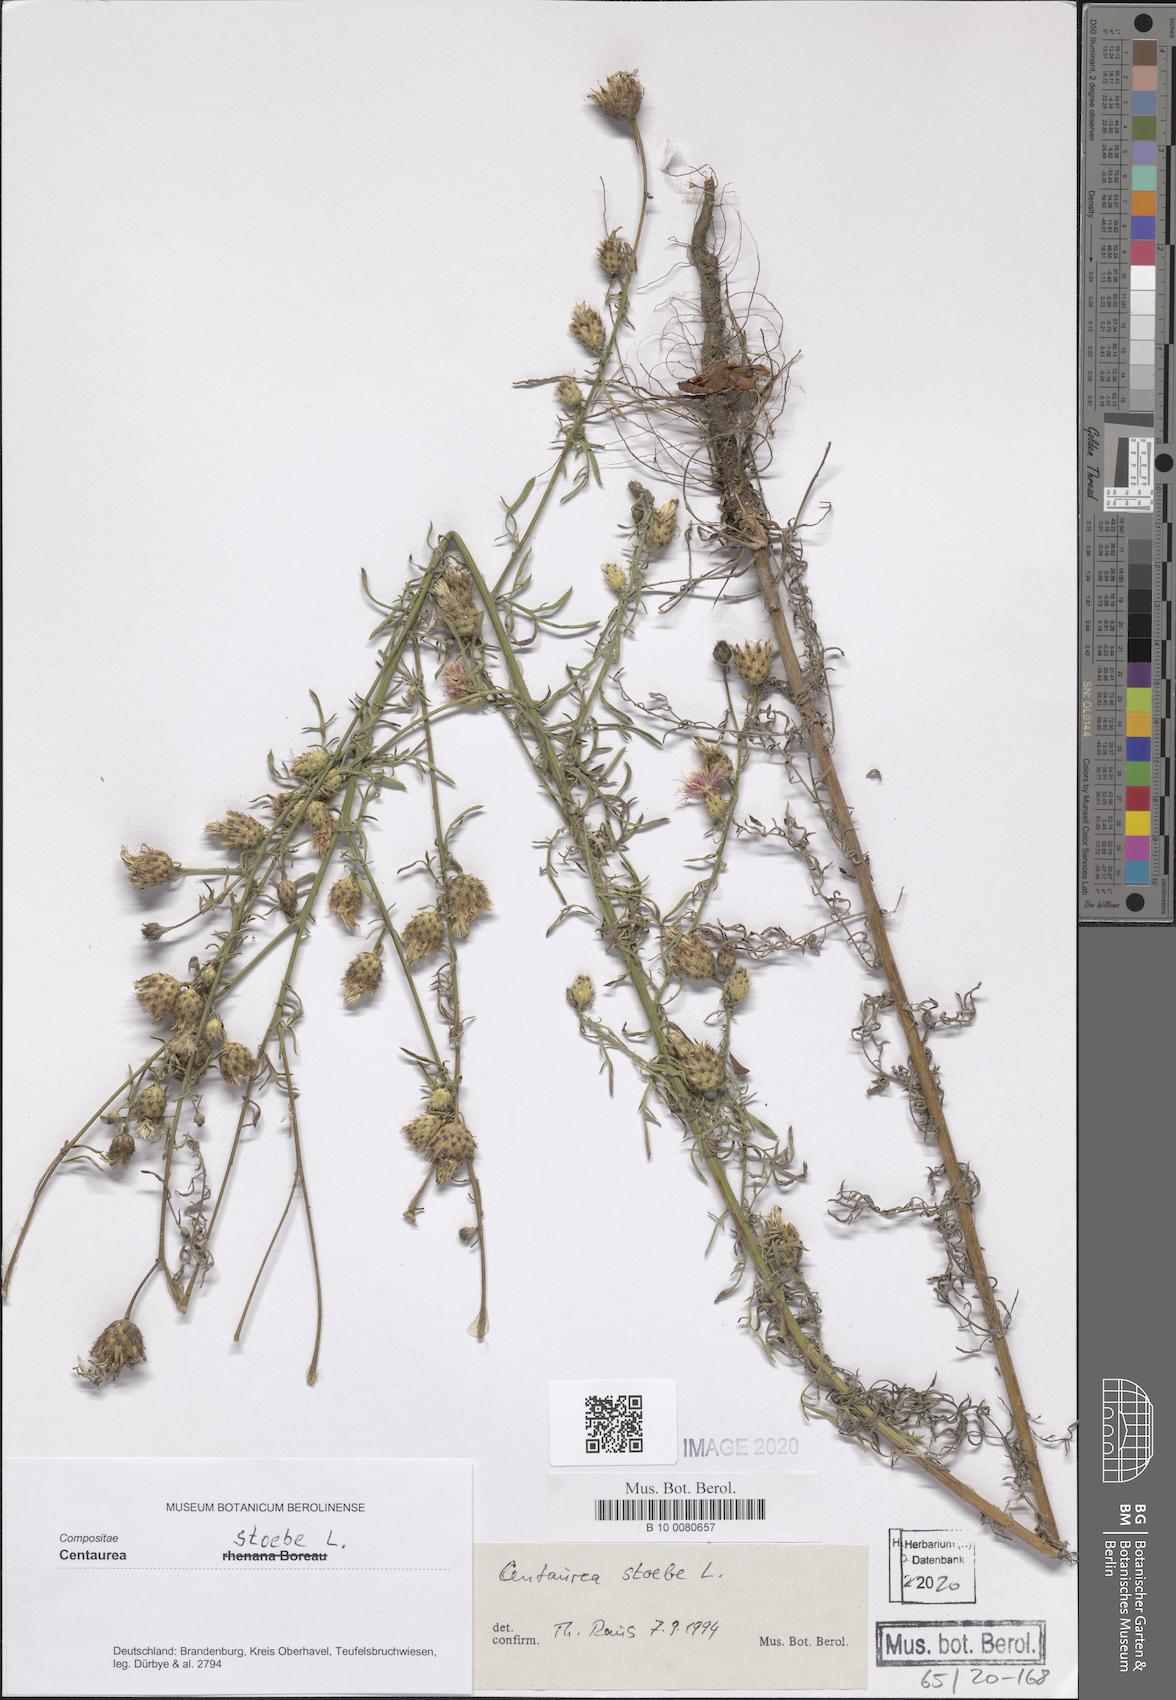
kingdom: Plantae
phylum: Tracheophyta
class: Magnoliopsida
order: Asterales
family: Asteraceae
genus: Centaurea
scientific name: Centaurea stoebe
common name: Spotted knapweed
